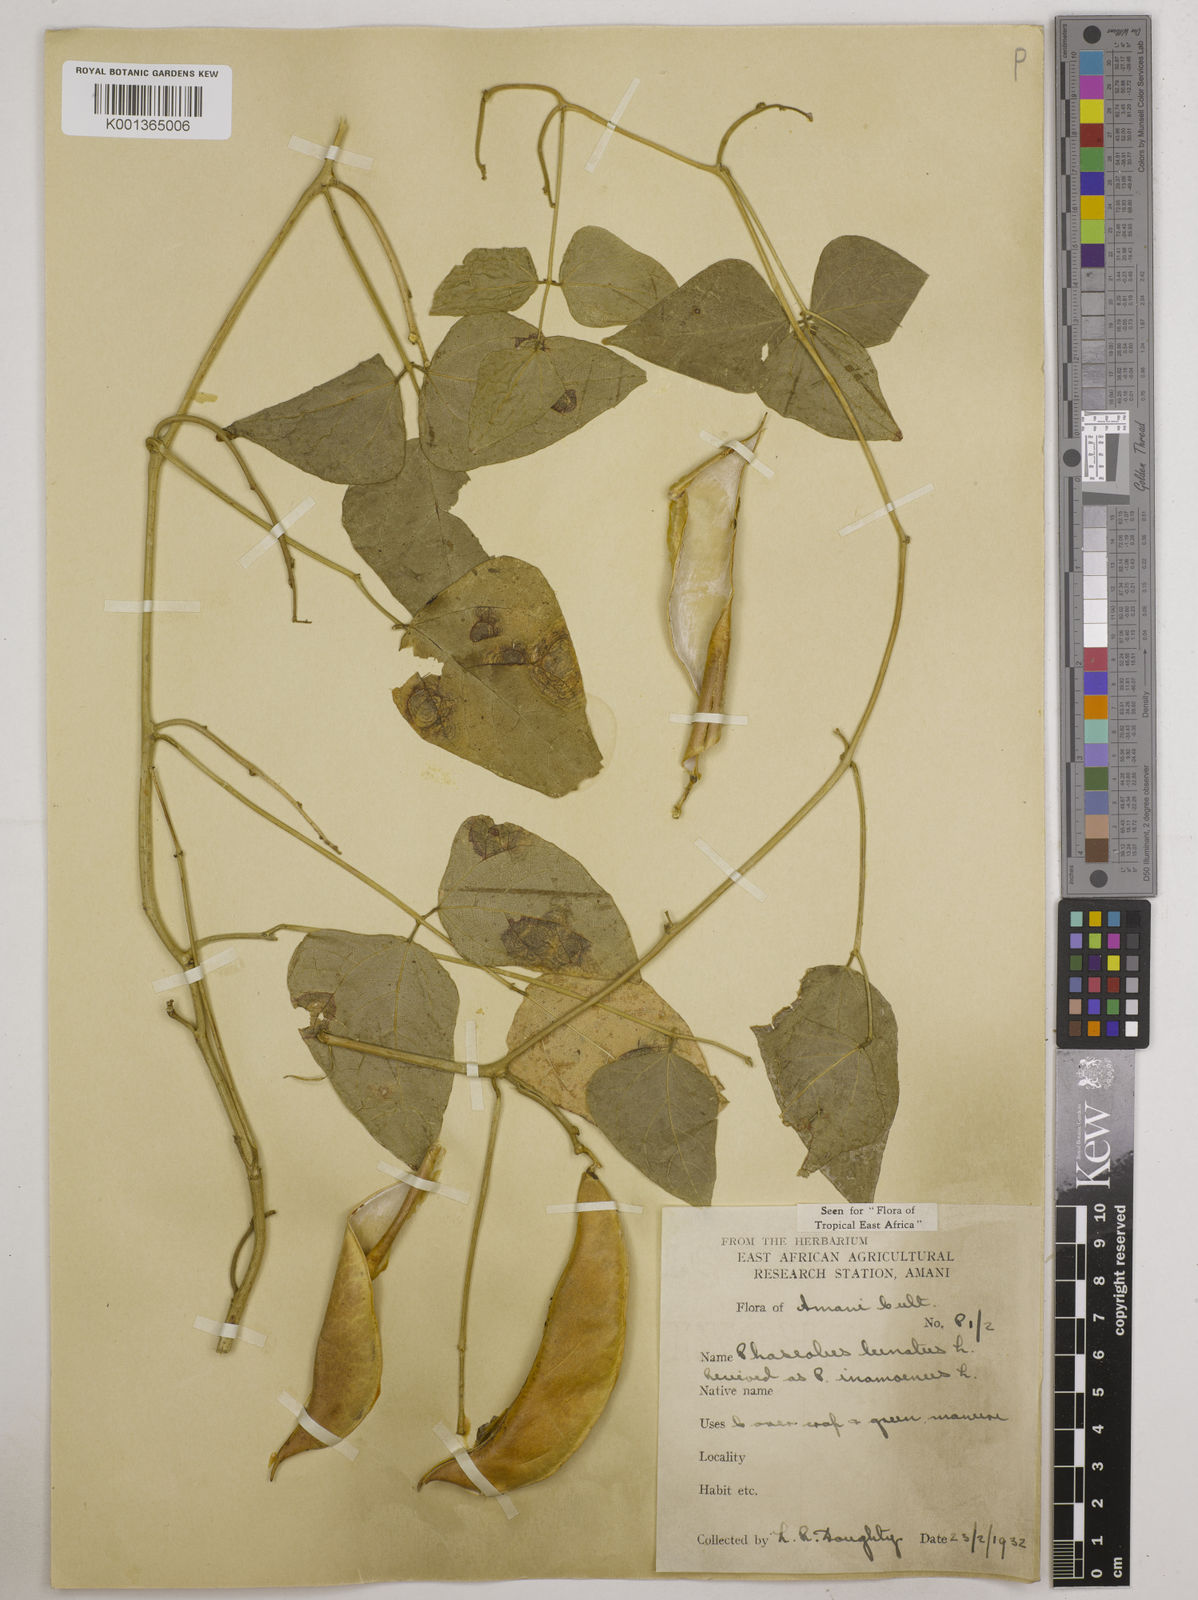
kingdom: Plantae
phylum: Tracheophyta
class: Magnoliopsida
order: Fabales
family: Fabaceae
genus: Phaseolus
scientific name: Phaseolus lunatus
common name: Sieva bean
